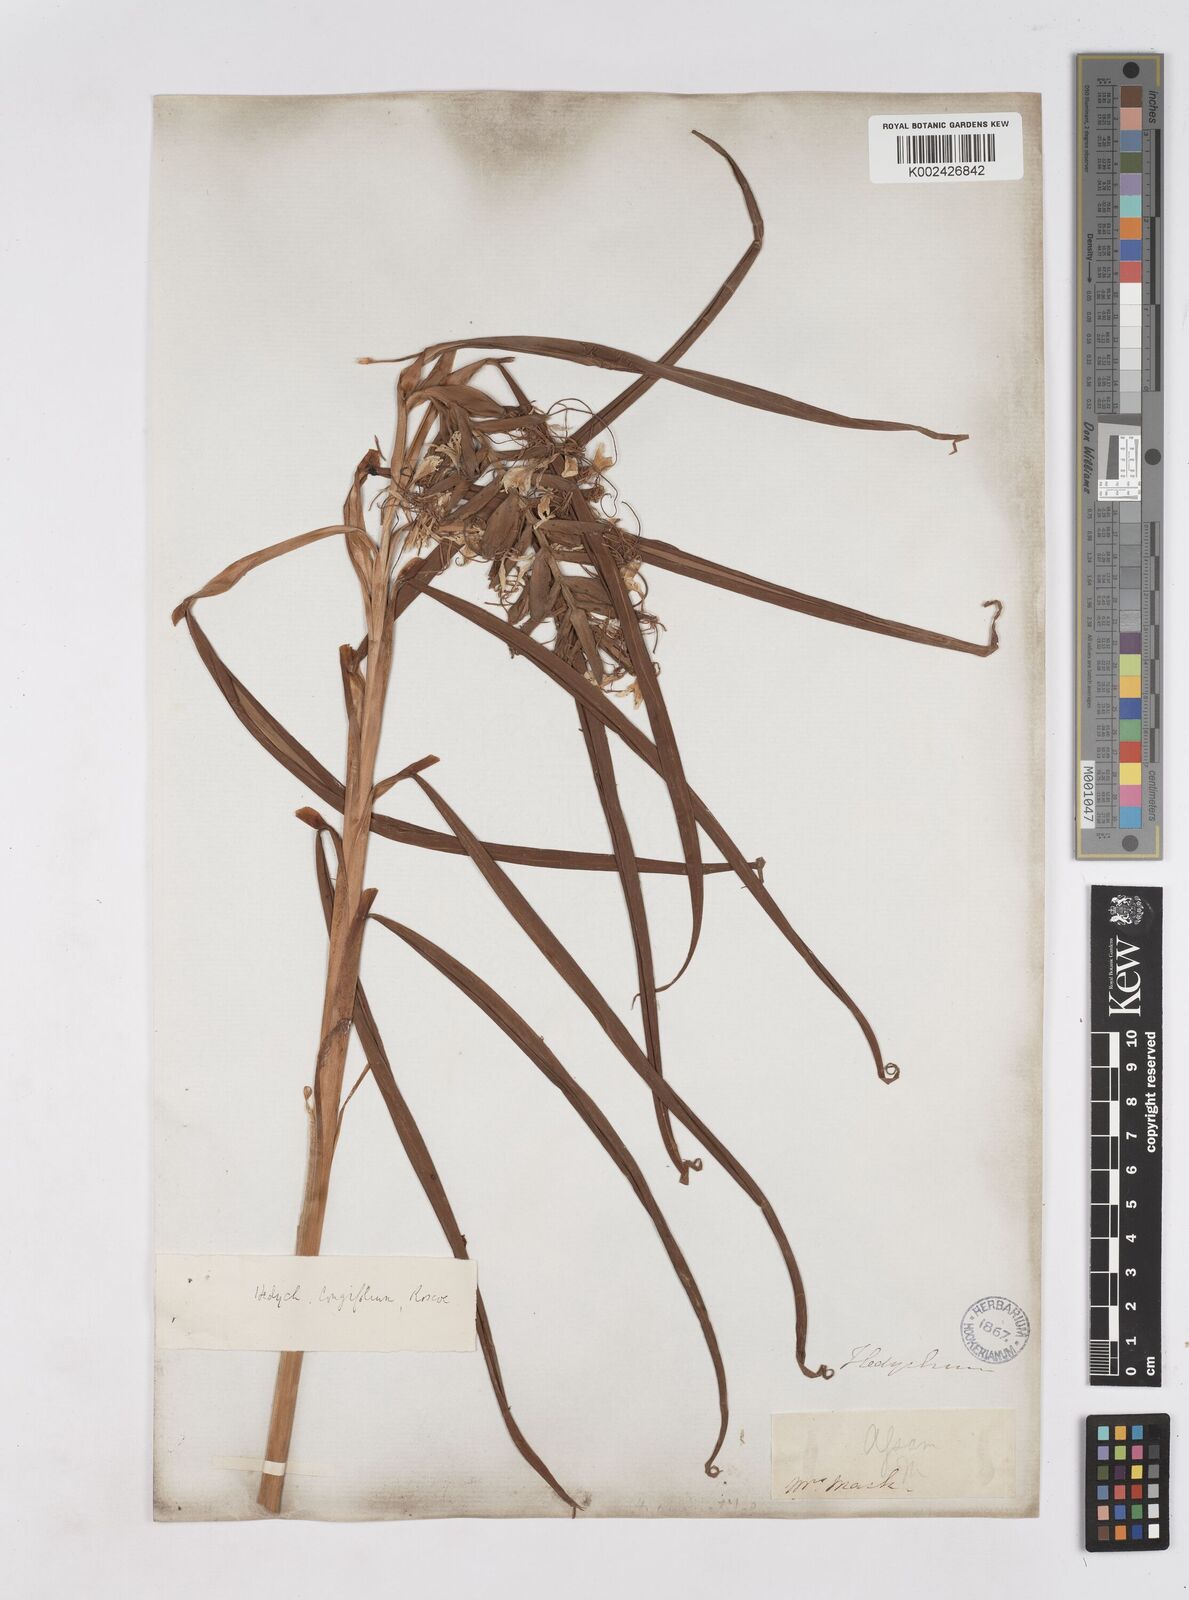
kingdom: Plantae
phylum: Tracheophyta
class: Liliopsida
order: Zingiberales
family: Zingiberaceae
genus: Hedychium
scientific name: Hedychium coccineum
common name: Red ginger-lily
